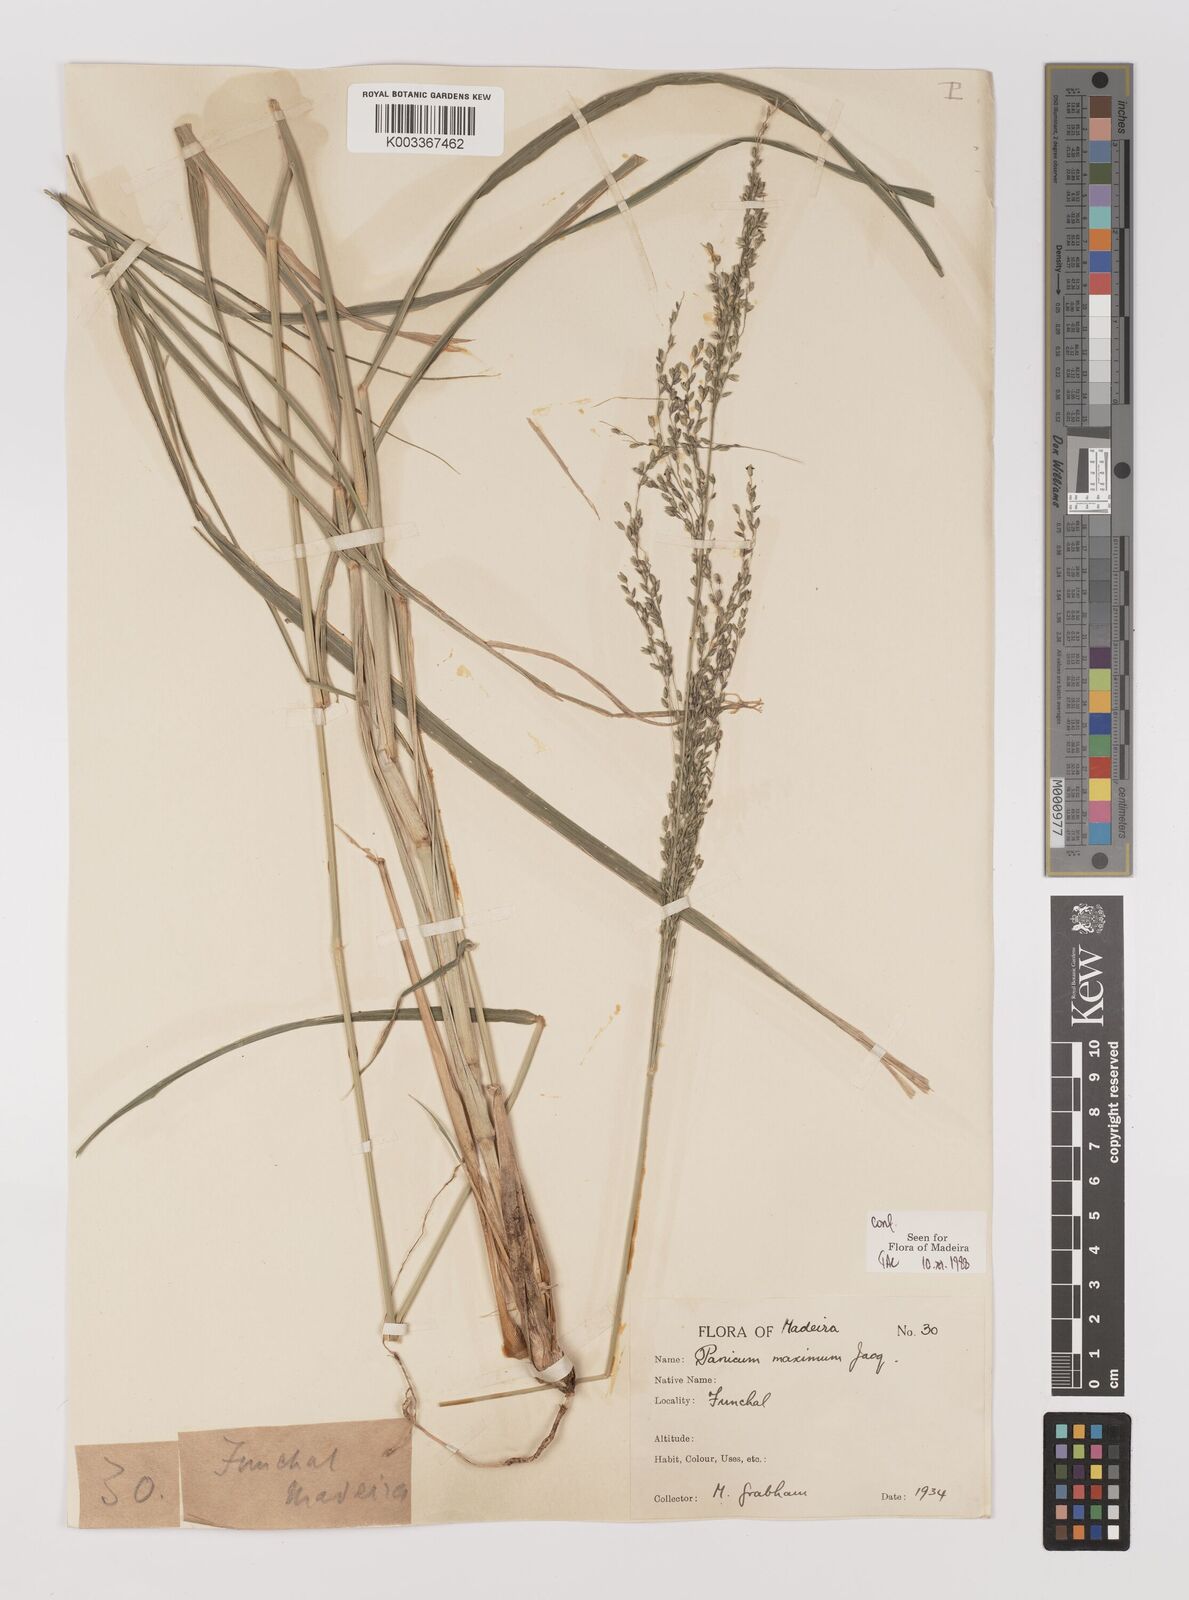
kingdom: Plantae
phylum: Tracheophyta
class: Liliopsida
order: Poales
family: Poaceae
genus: Megathyrsus
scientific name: Megathyrsus maximus
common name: Guineagrass
